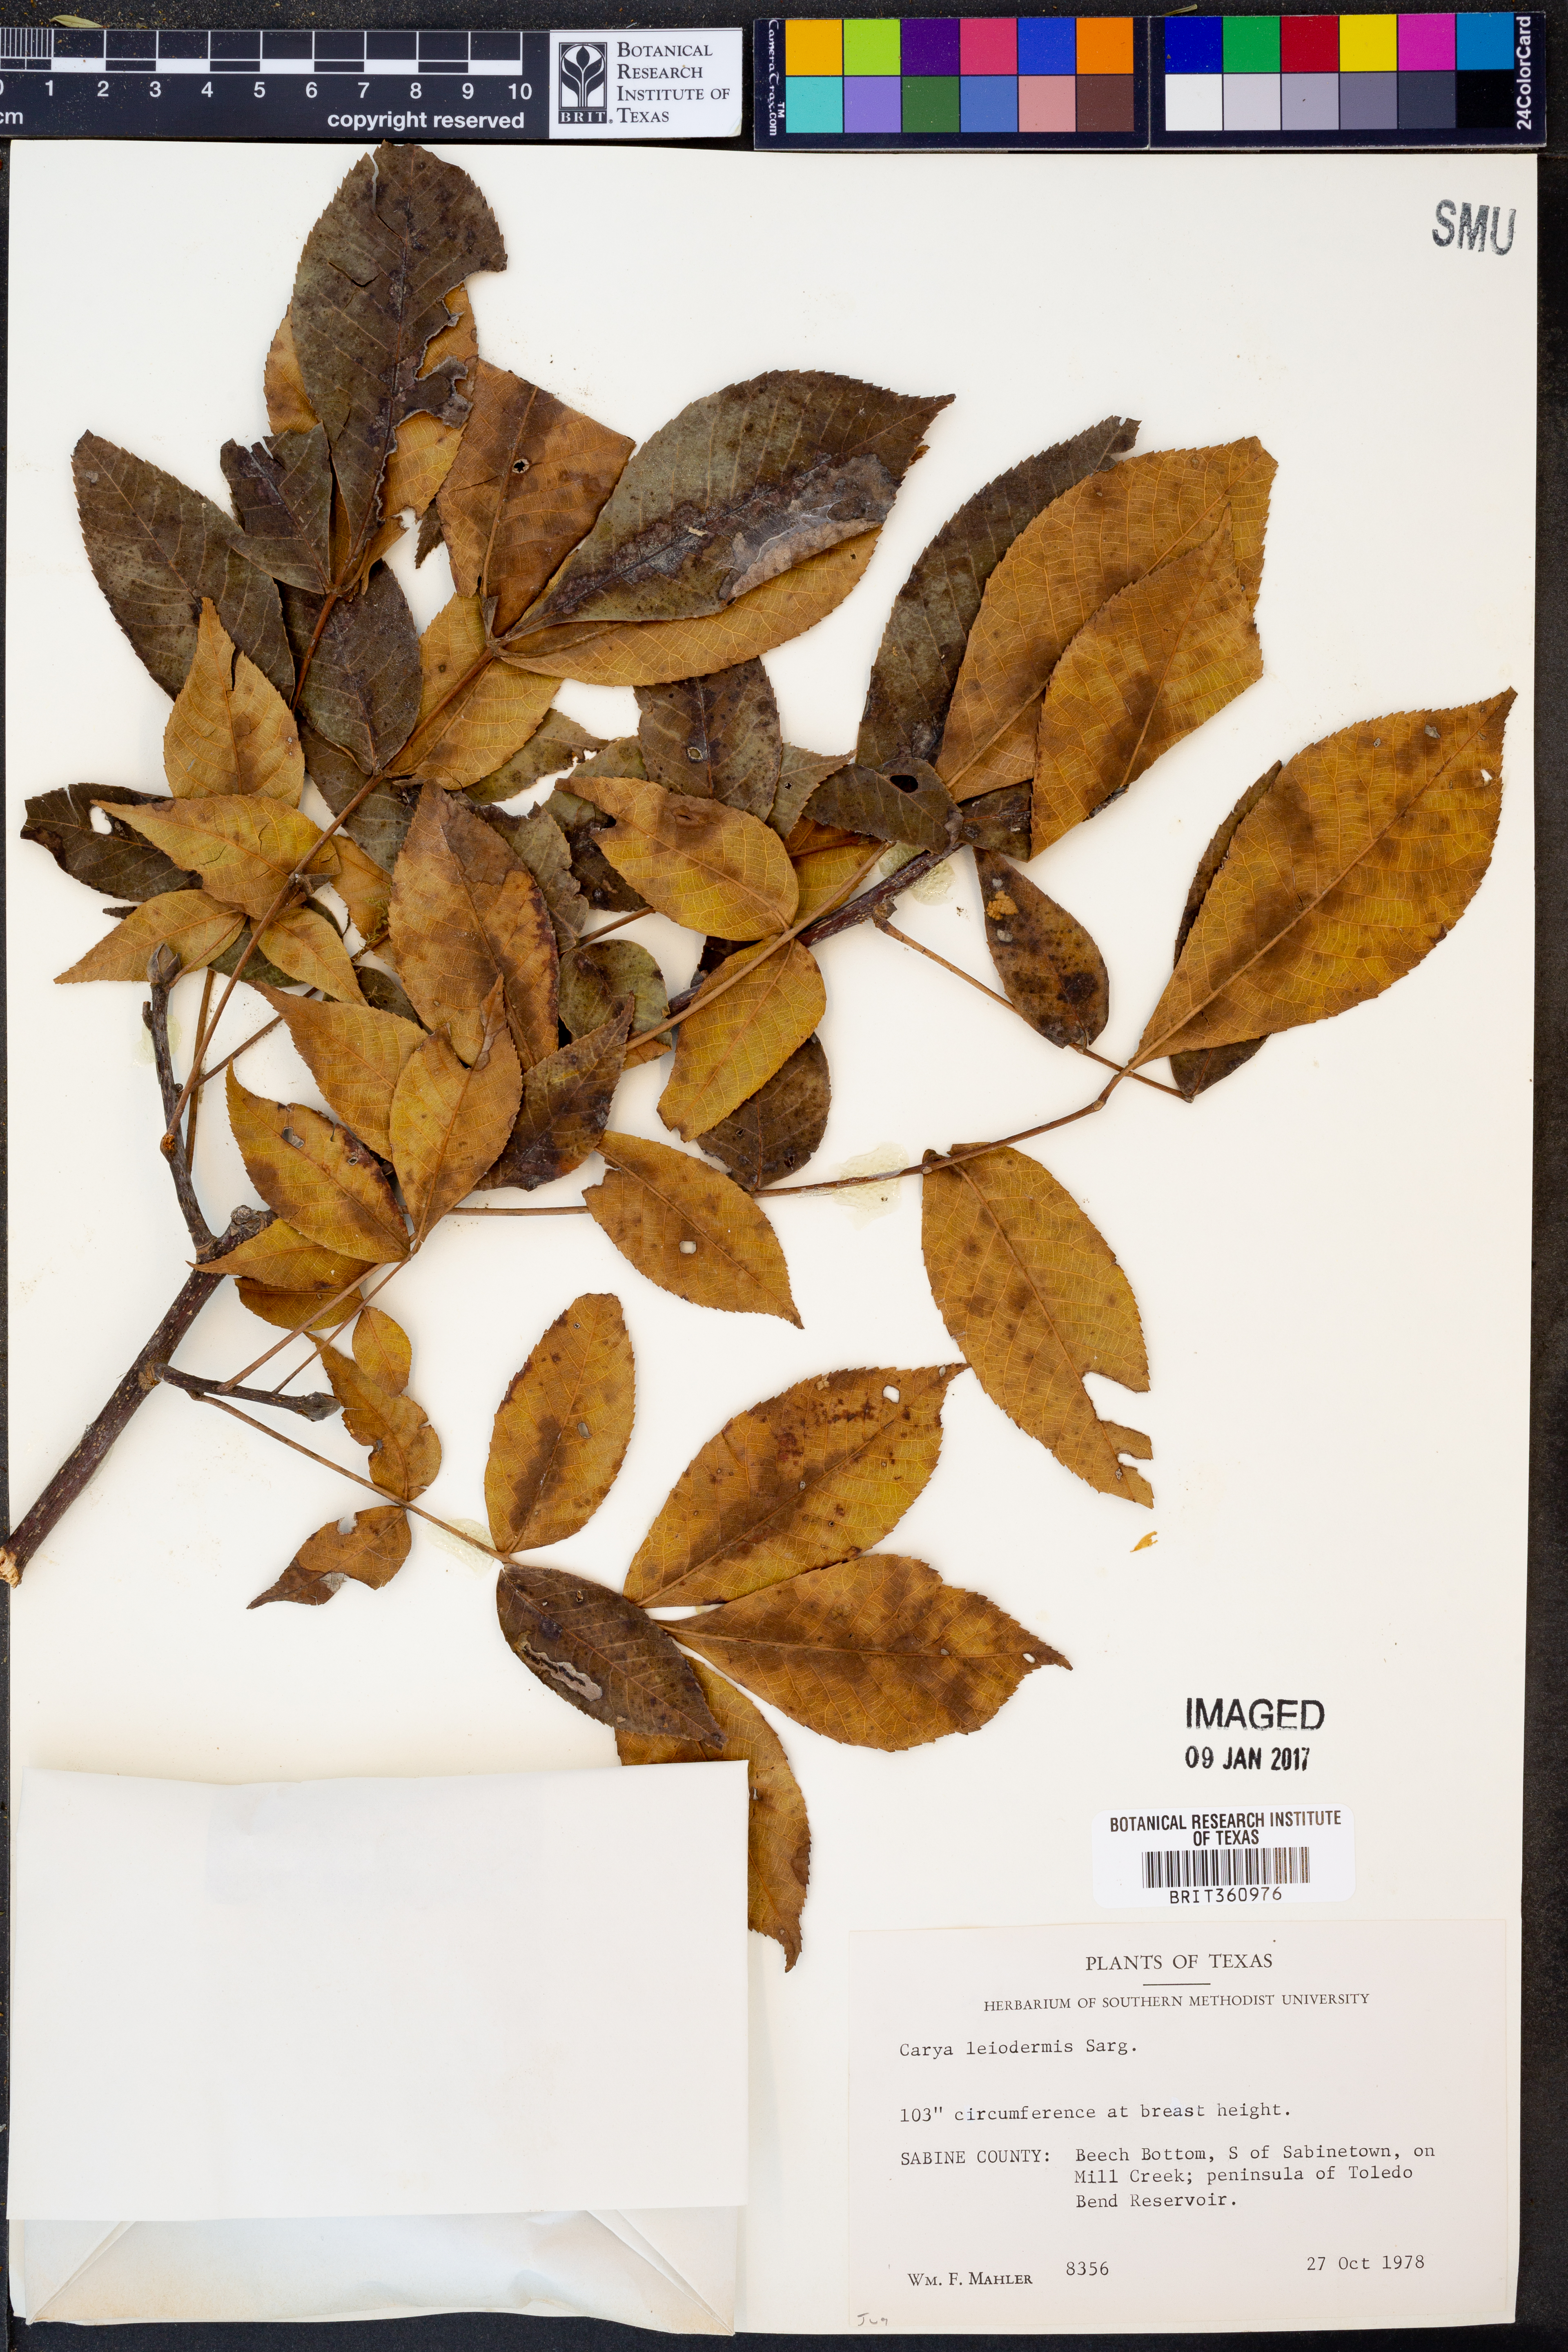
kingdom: Plantae
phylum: Tracheophyta
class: Magnoliopsida
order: Fagales
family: Juglandaceae
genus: Carya
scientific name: Carya glabra
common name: Pignut hickory
